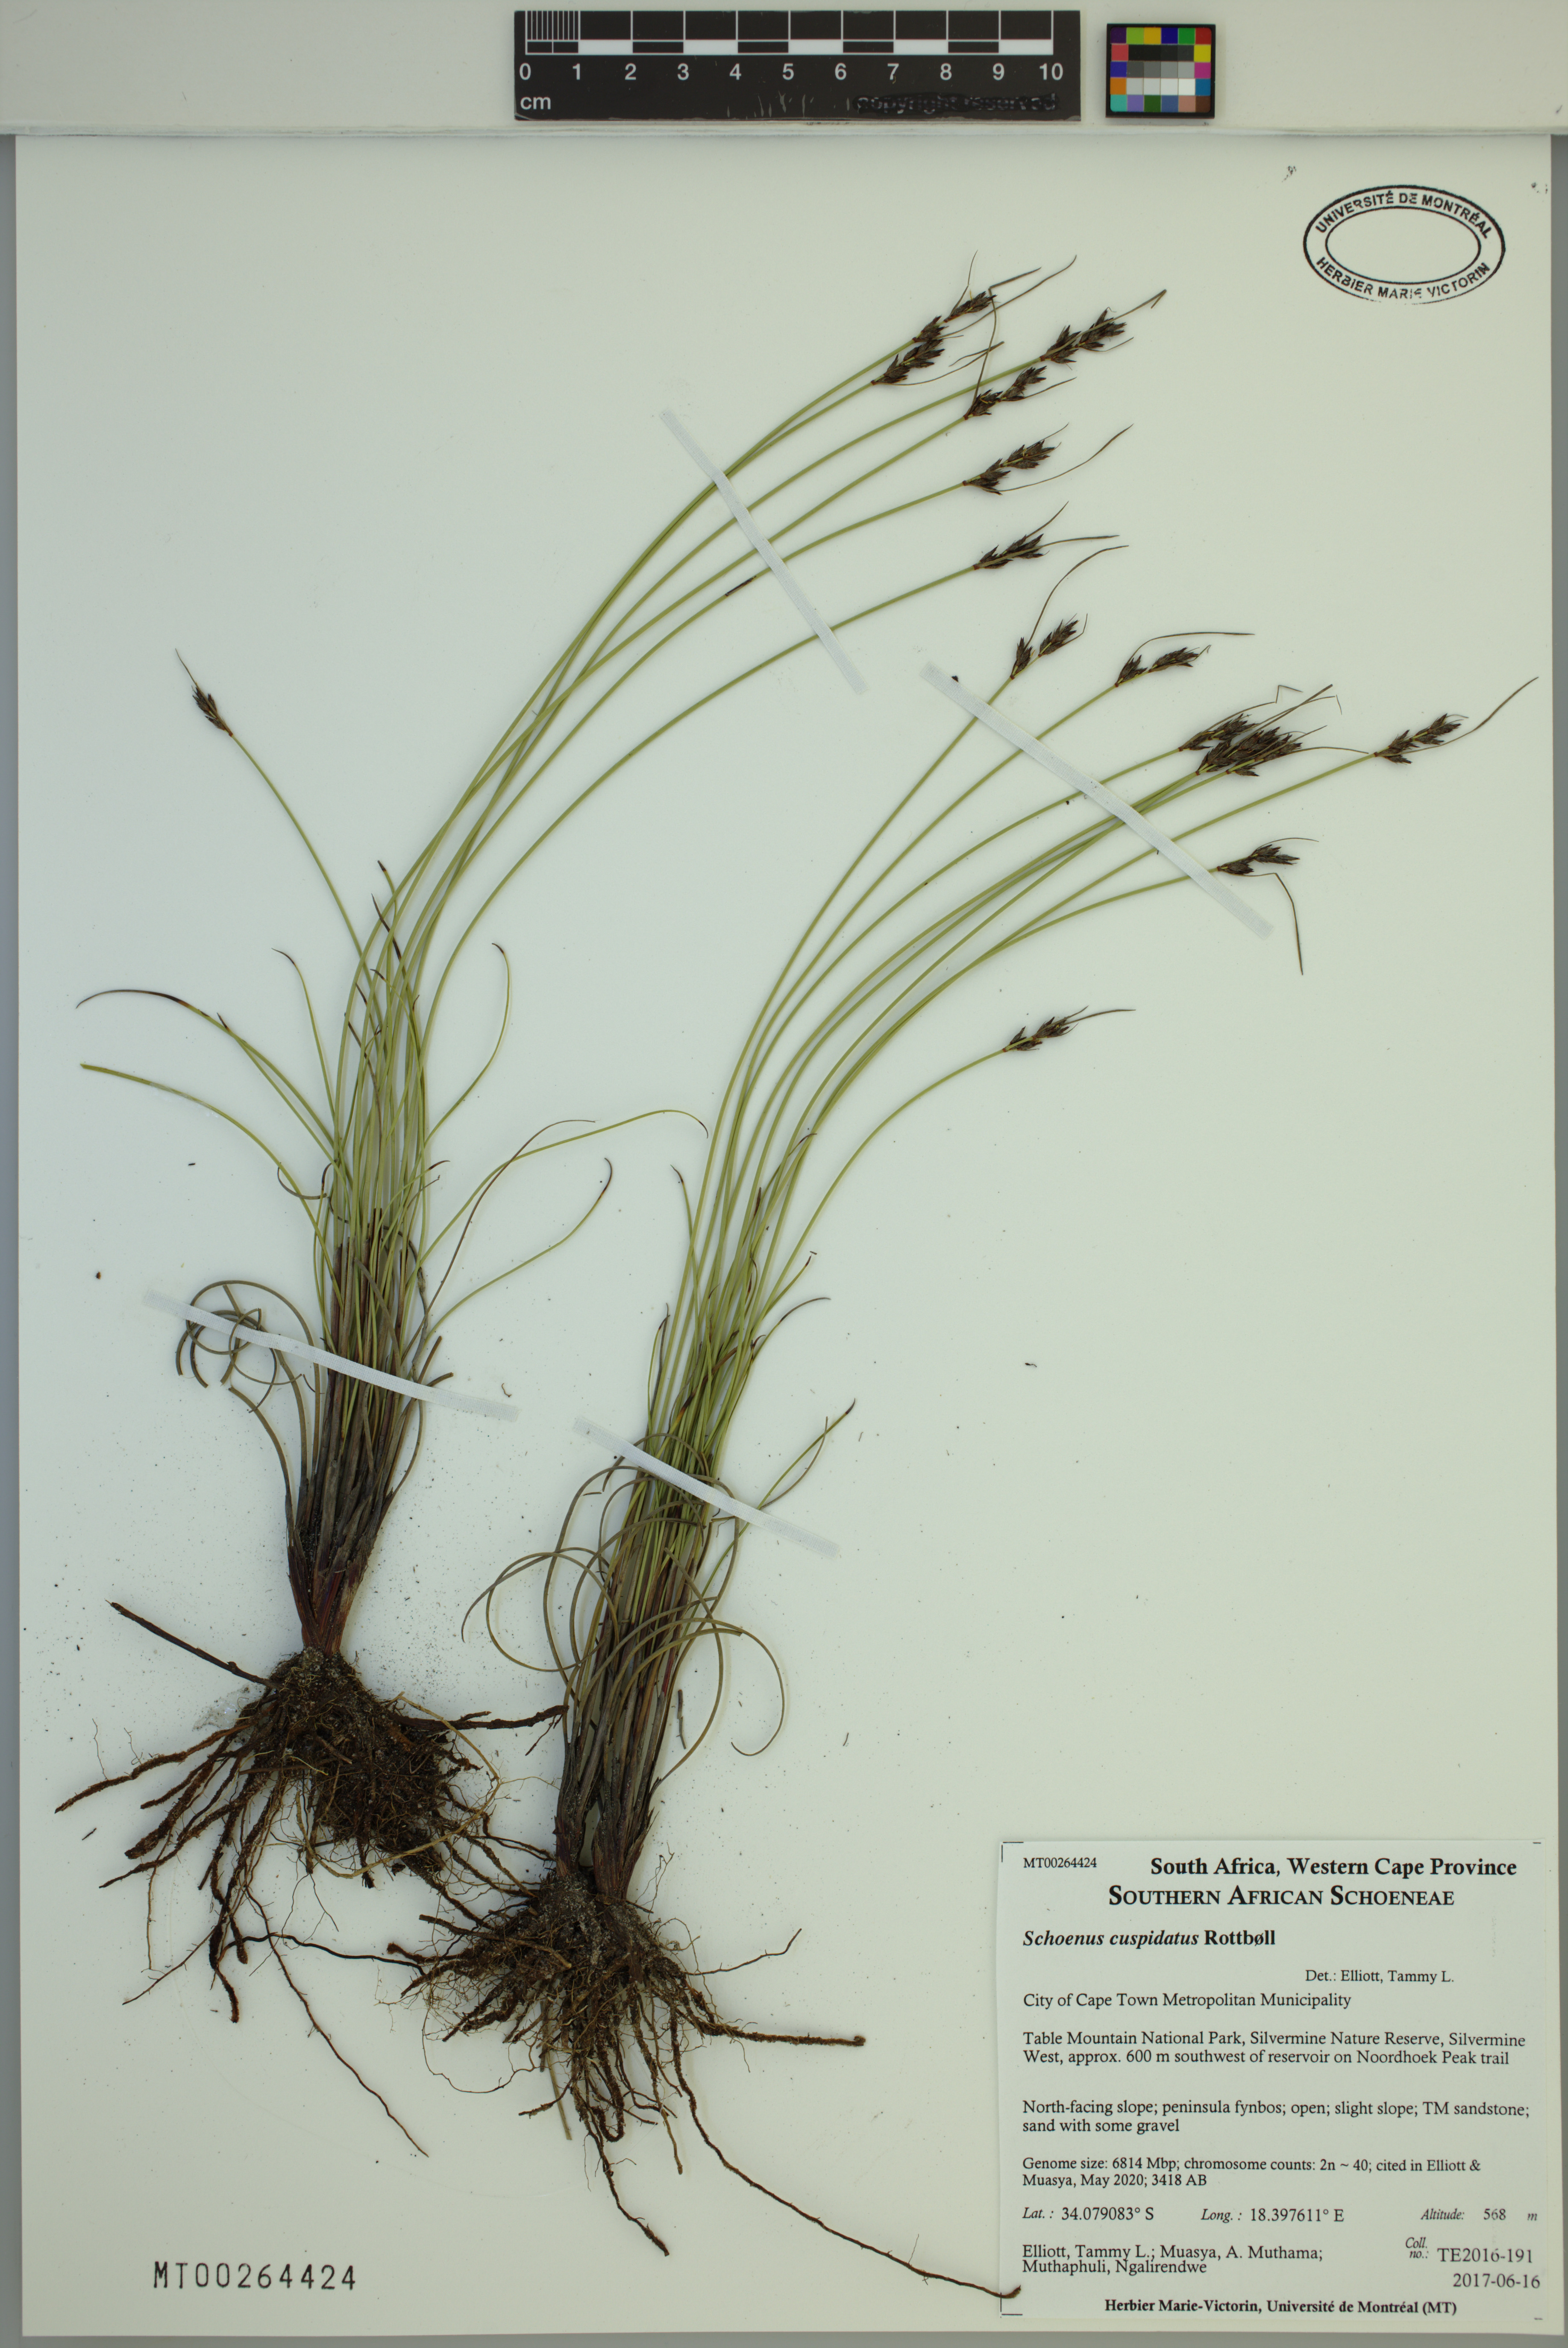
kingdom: Plantae
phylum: Tracheophyta
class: Liliopsida
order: Poales
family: Cyperaceae
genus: Schoenus
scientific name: Schoenus cuspidatus
